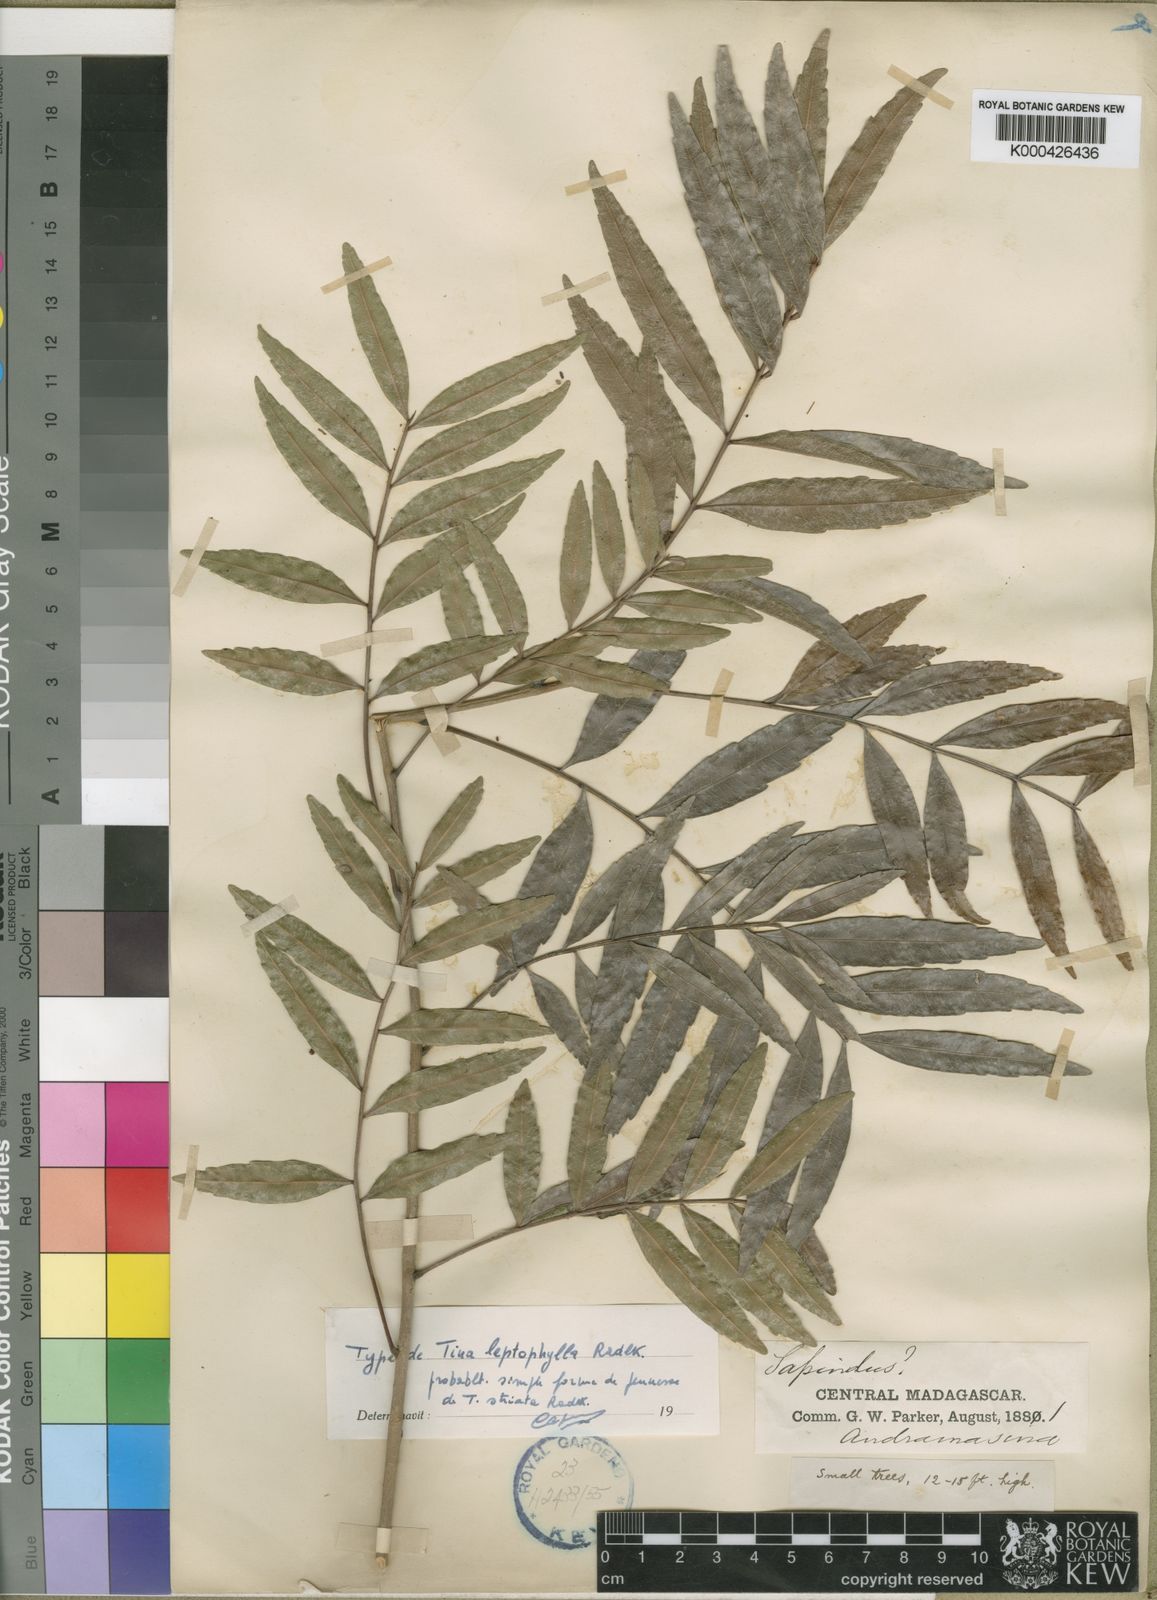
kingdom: Plantae
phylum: Tracheophyta
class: Magnoliopsida
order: Sapindales
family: Sapindaceae
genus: Tina
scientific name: Tina isoneura
